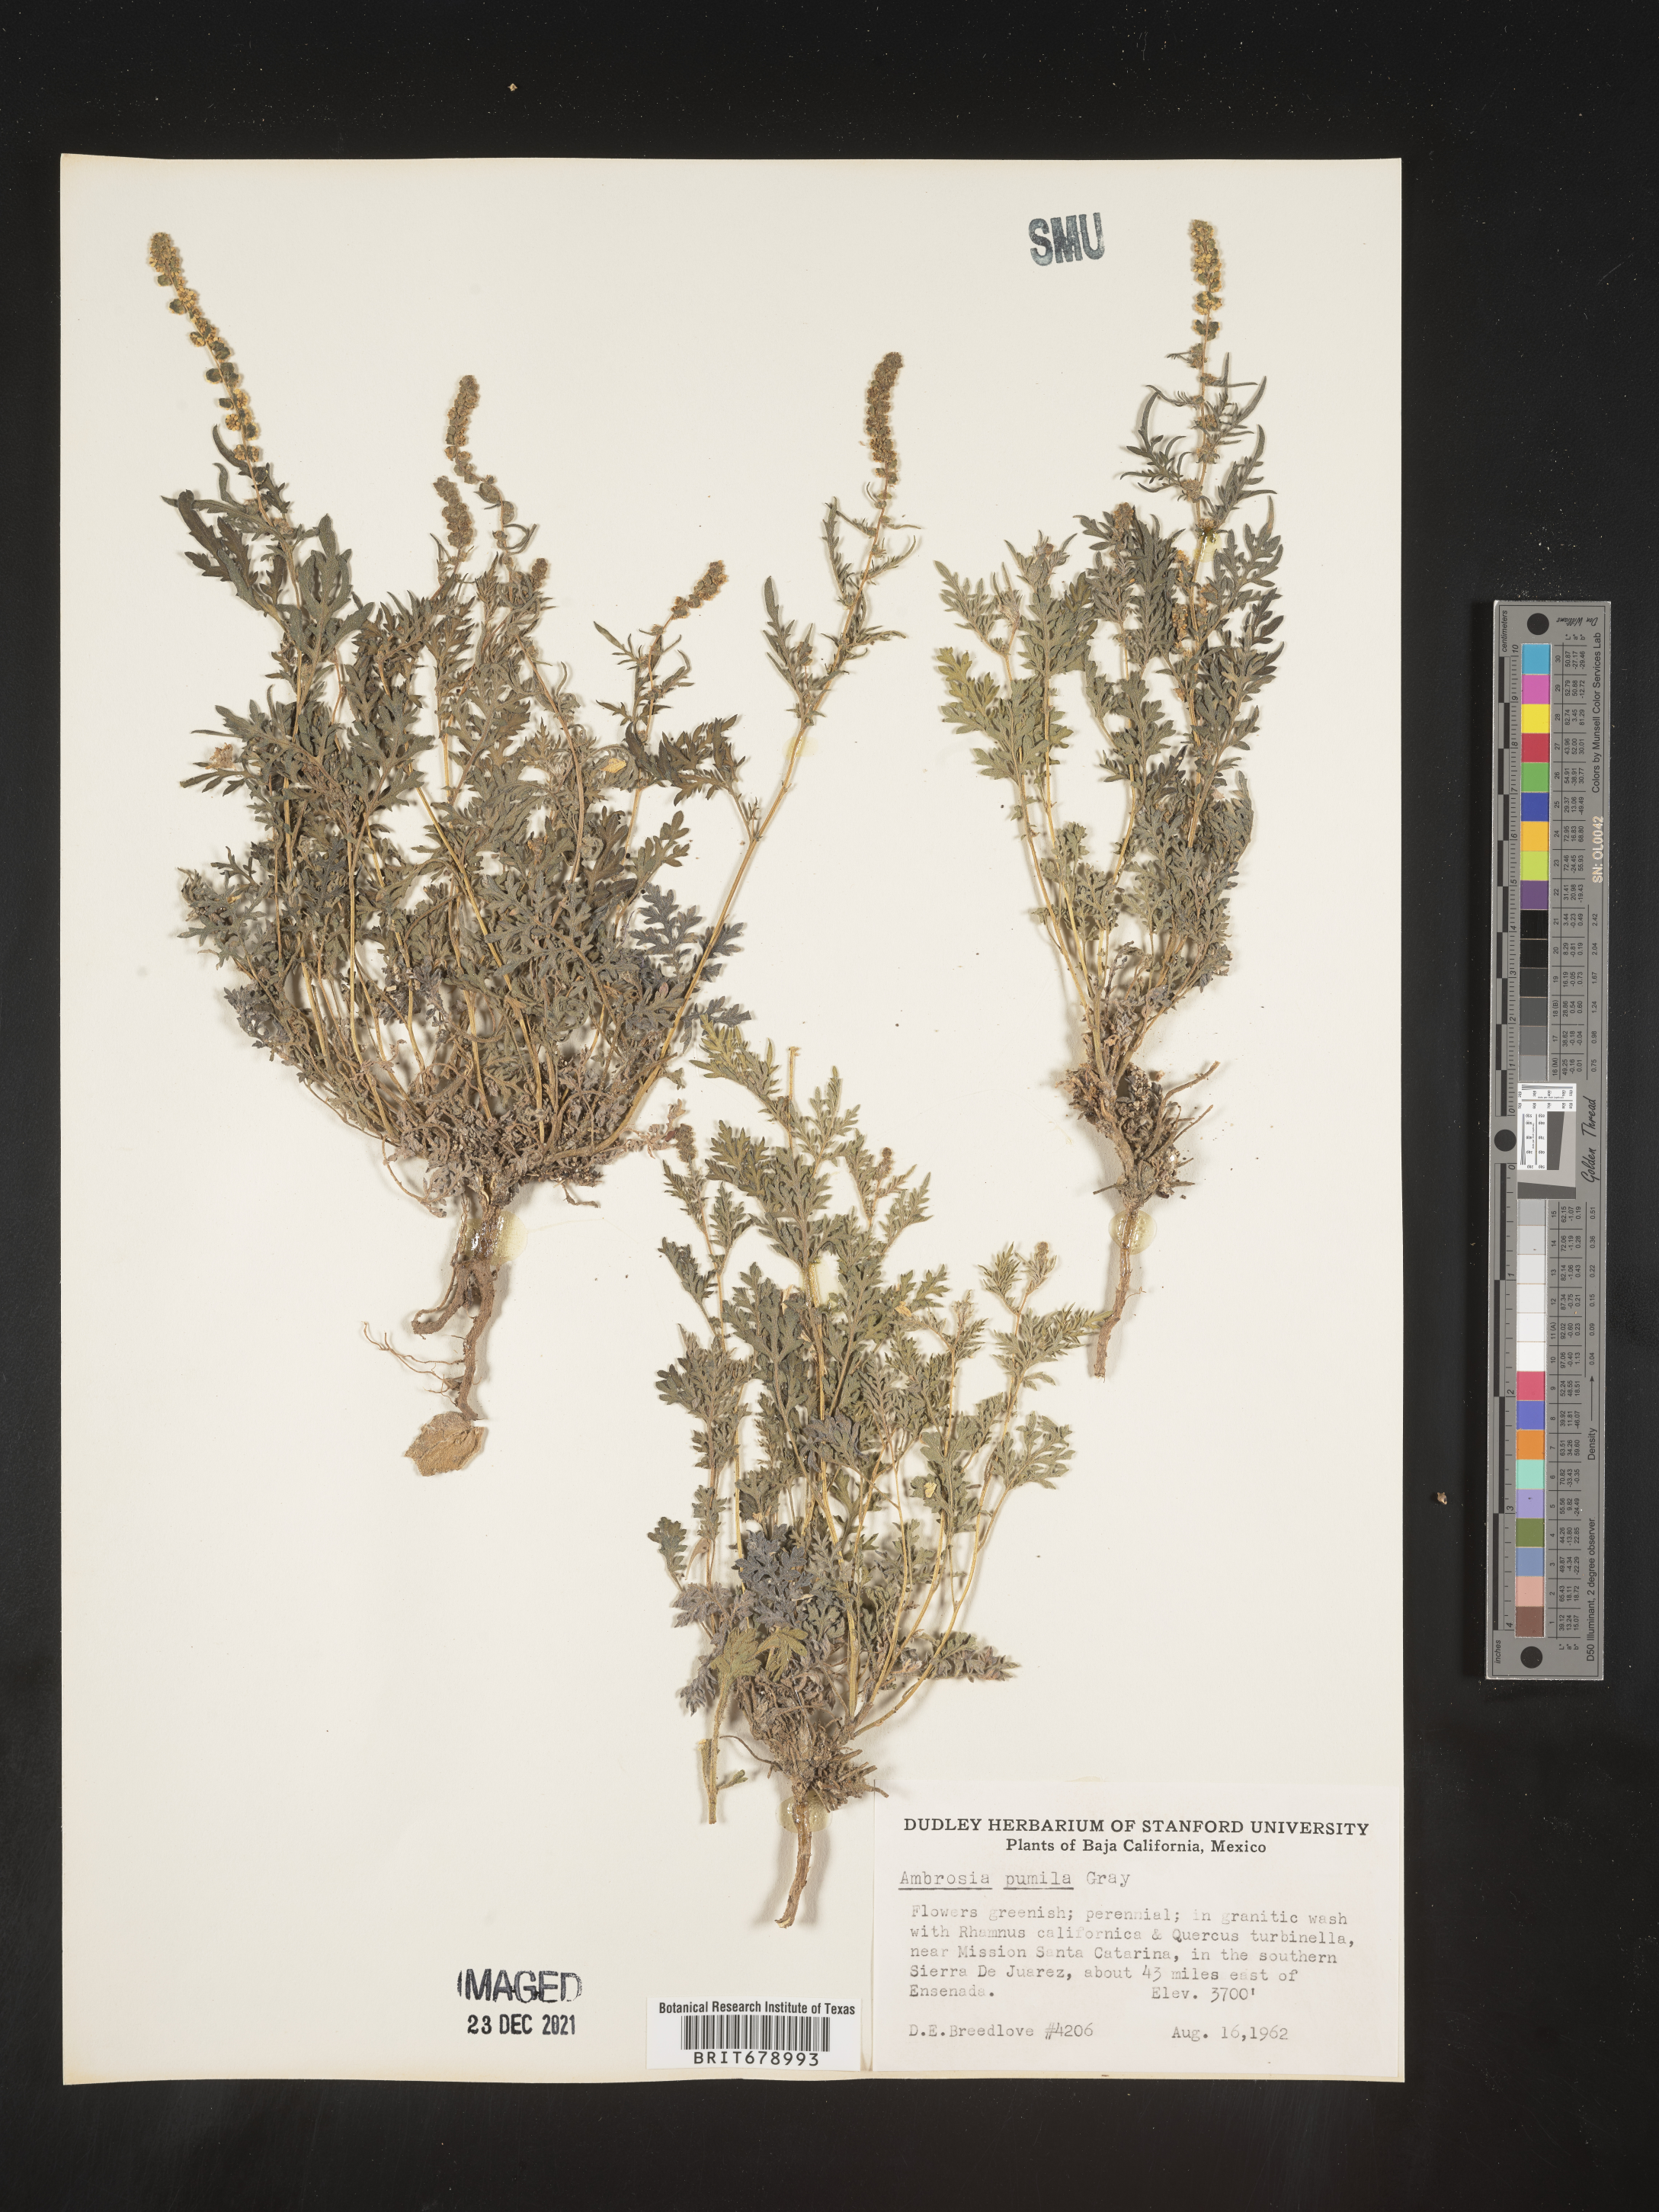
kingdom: Plantae
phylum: Tracheophyta
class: Magnoliopsida
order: Asterales
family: Asteraceae
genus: Ambrosia
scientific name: Ambrosia
